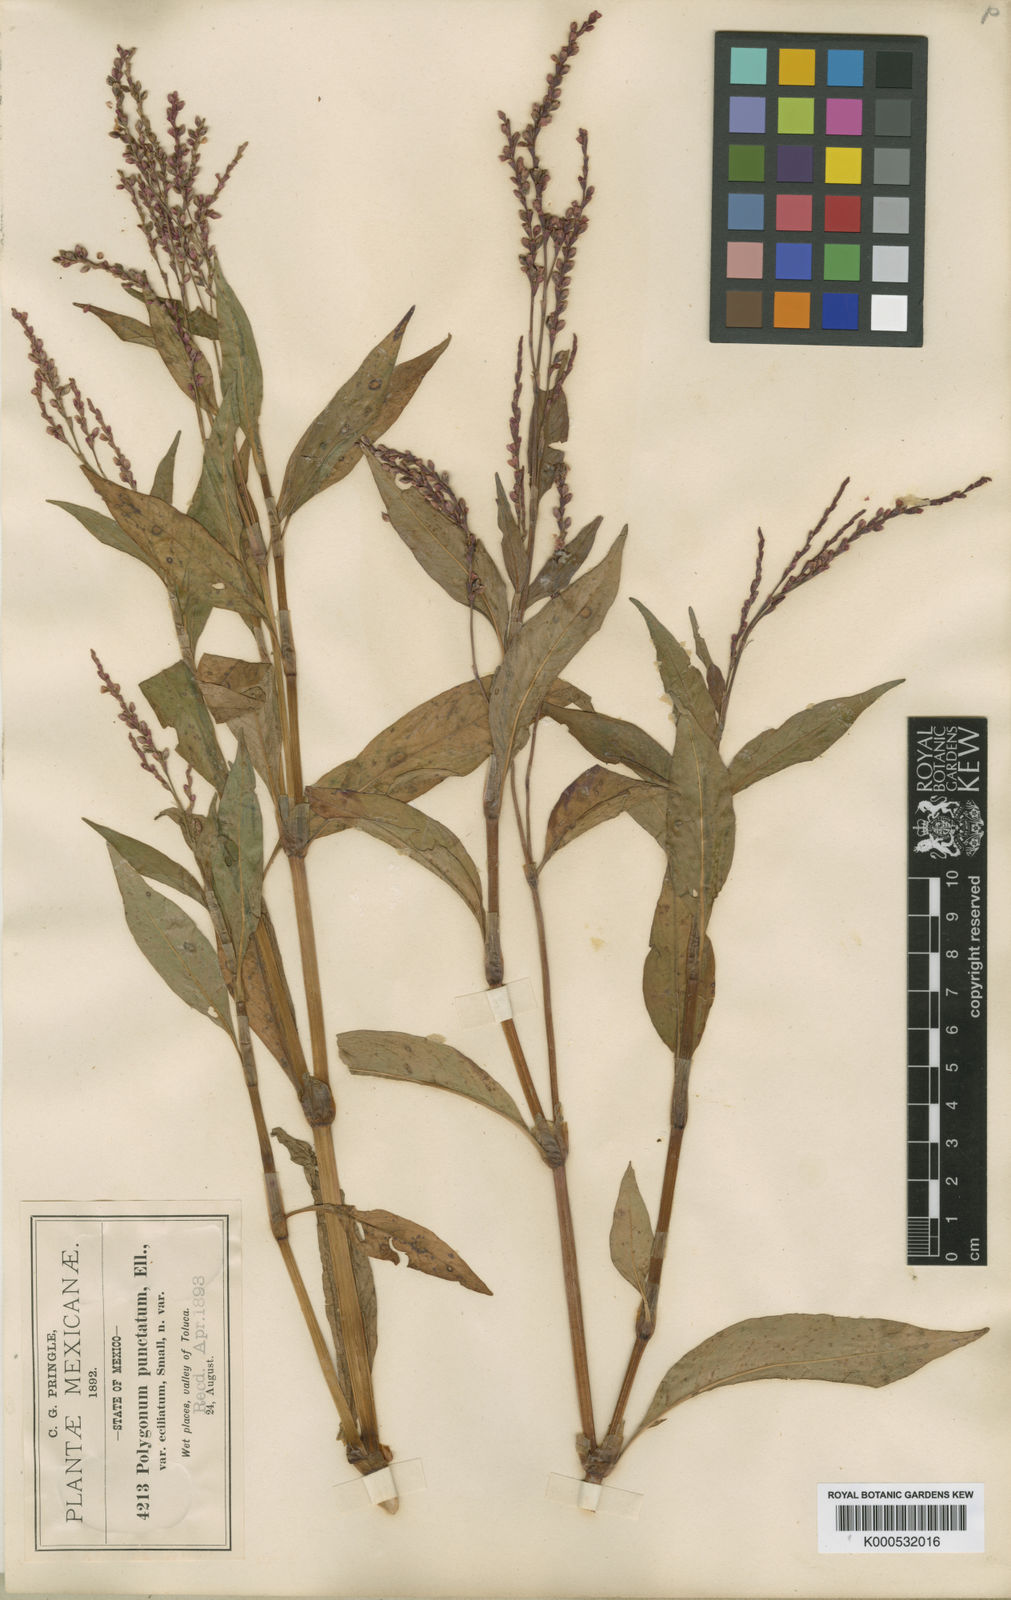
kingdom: Plantae
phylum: Tracheophyta
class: Magnoliopsida
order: Caryophyllales
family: Polygonaceae
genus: Persicaria
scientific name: Persicaria punctata
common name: Dotted smartweed
